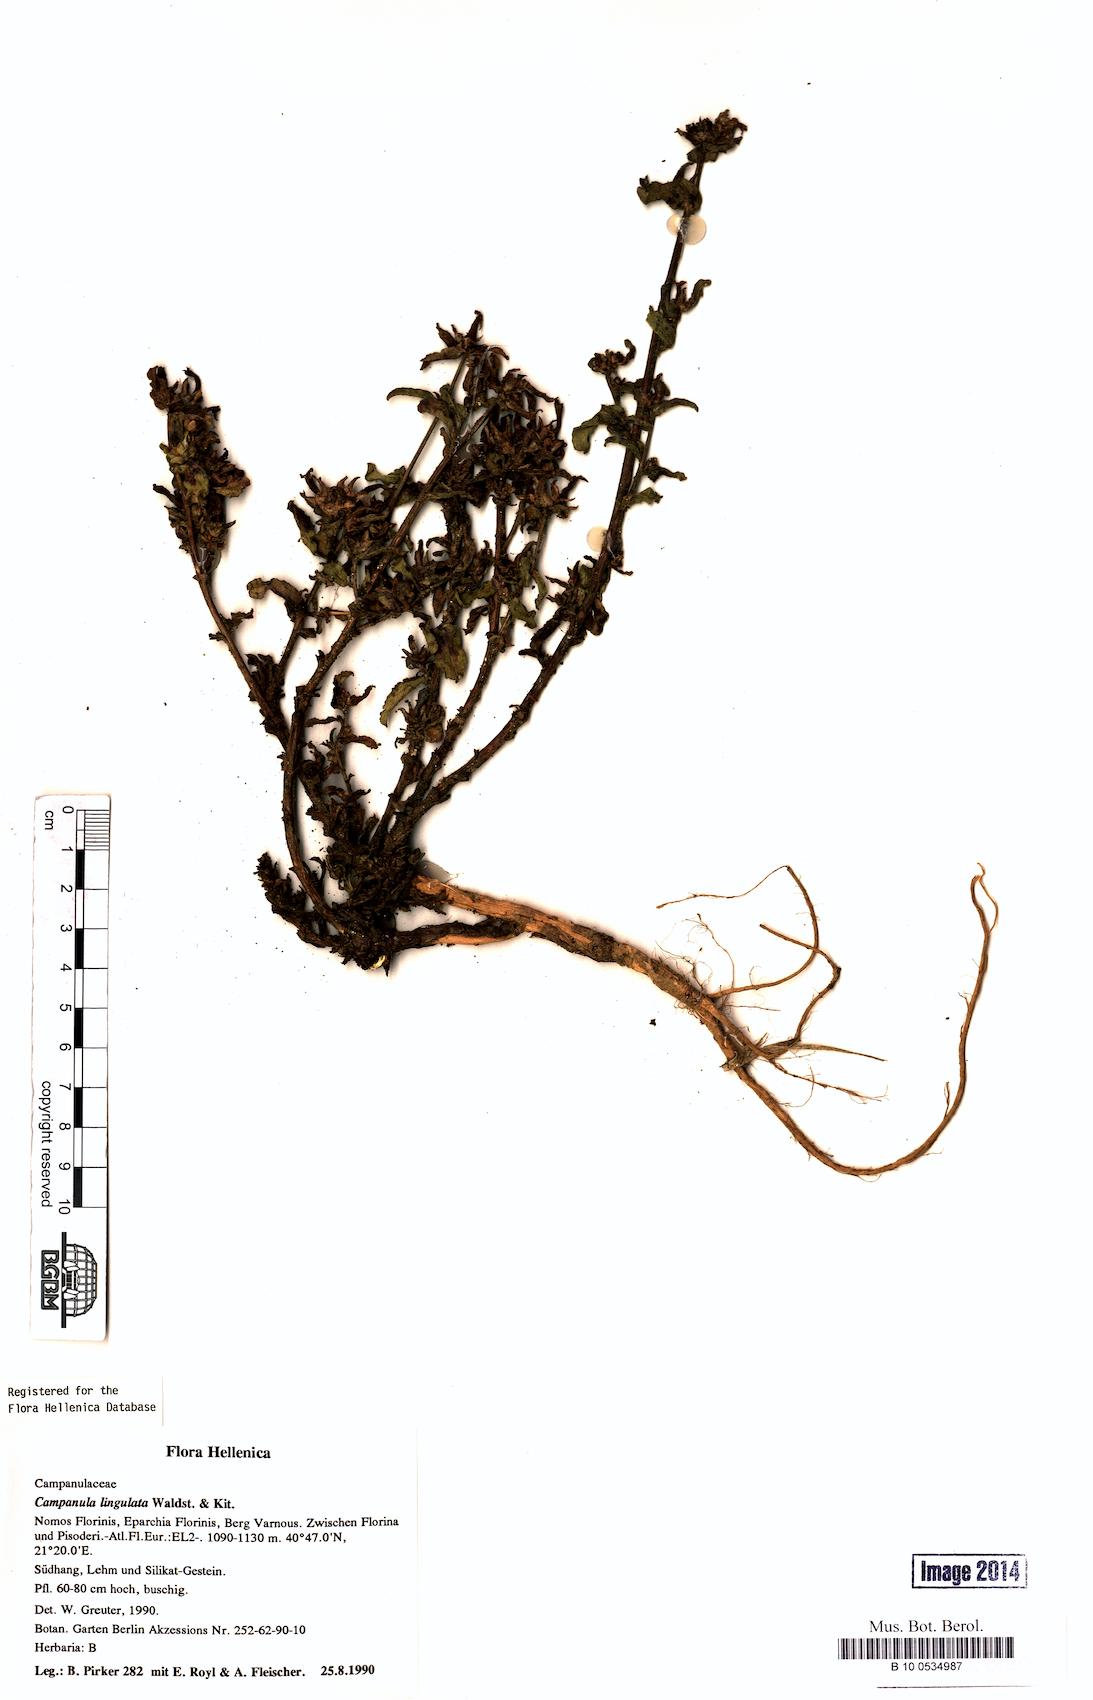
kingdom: Plantae
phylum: Tracheophyta
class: Magnoliopsida
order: Asterales
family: Campanulaceae
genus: Campanula
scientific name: Campanula lingulata
